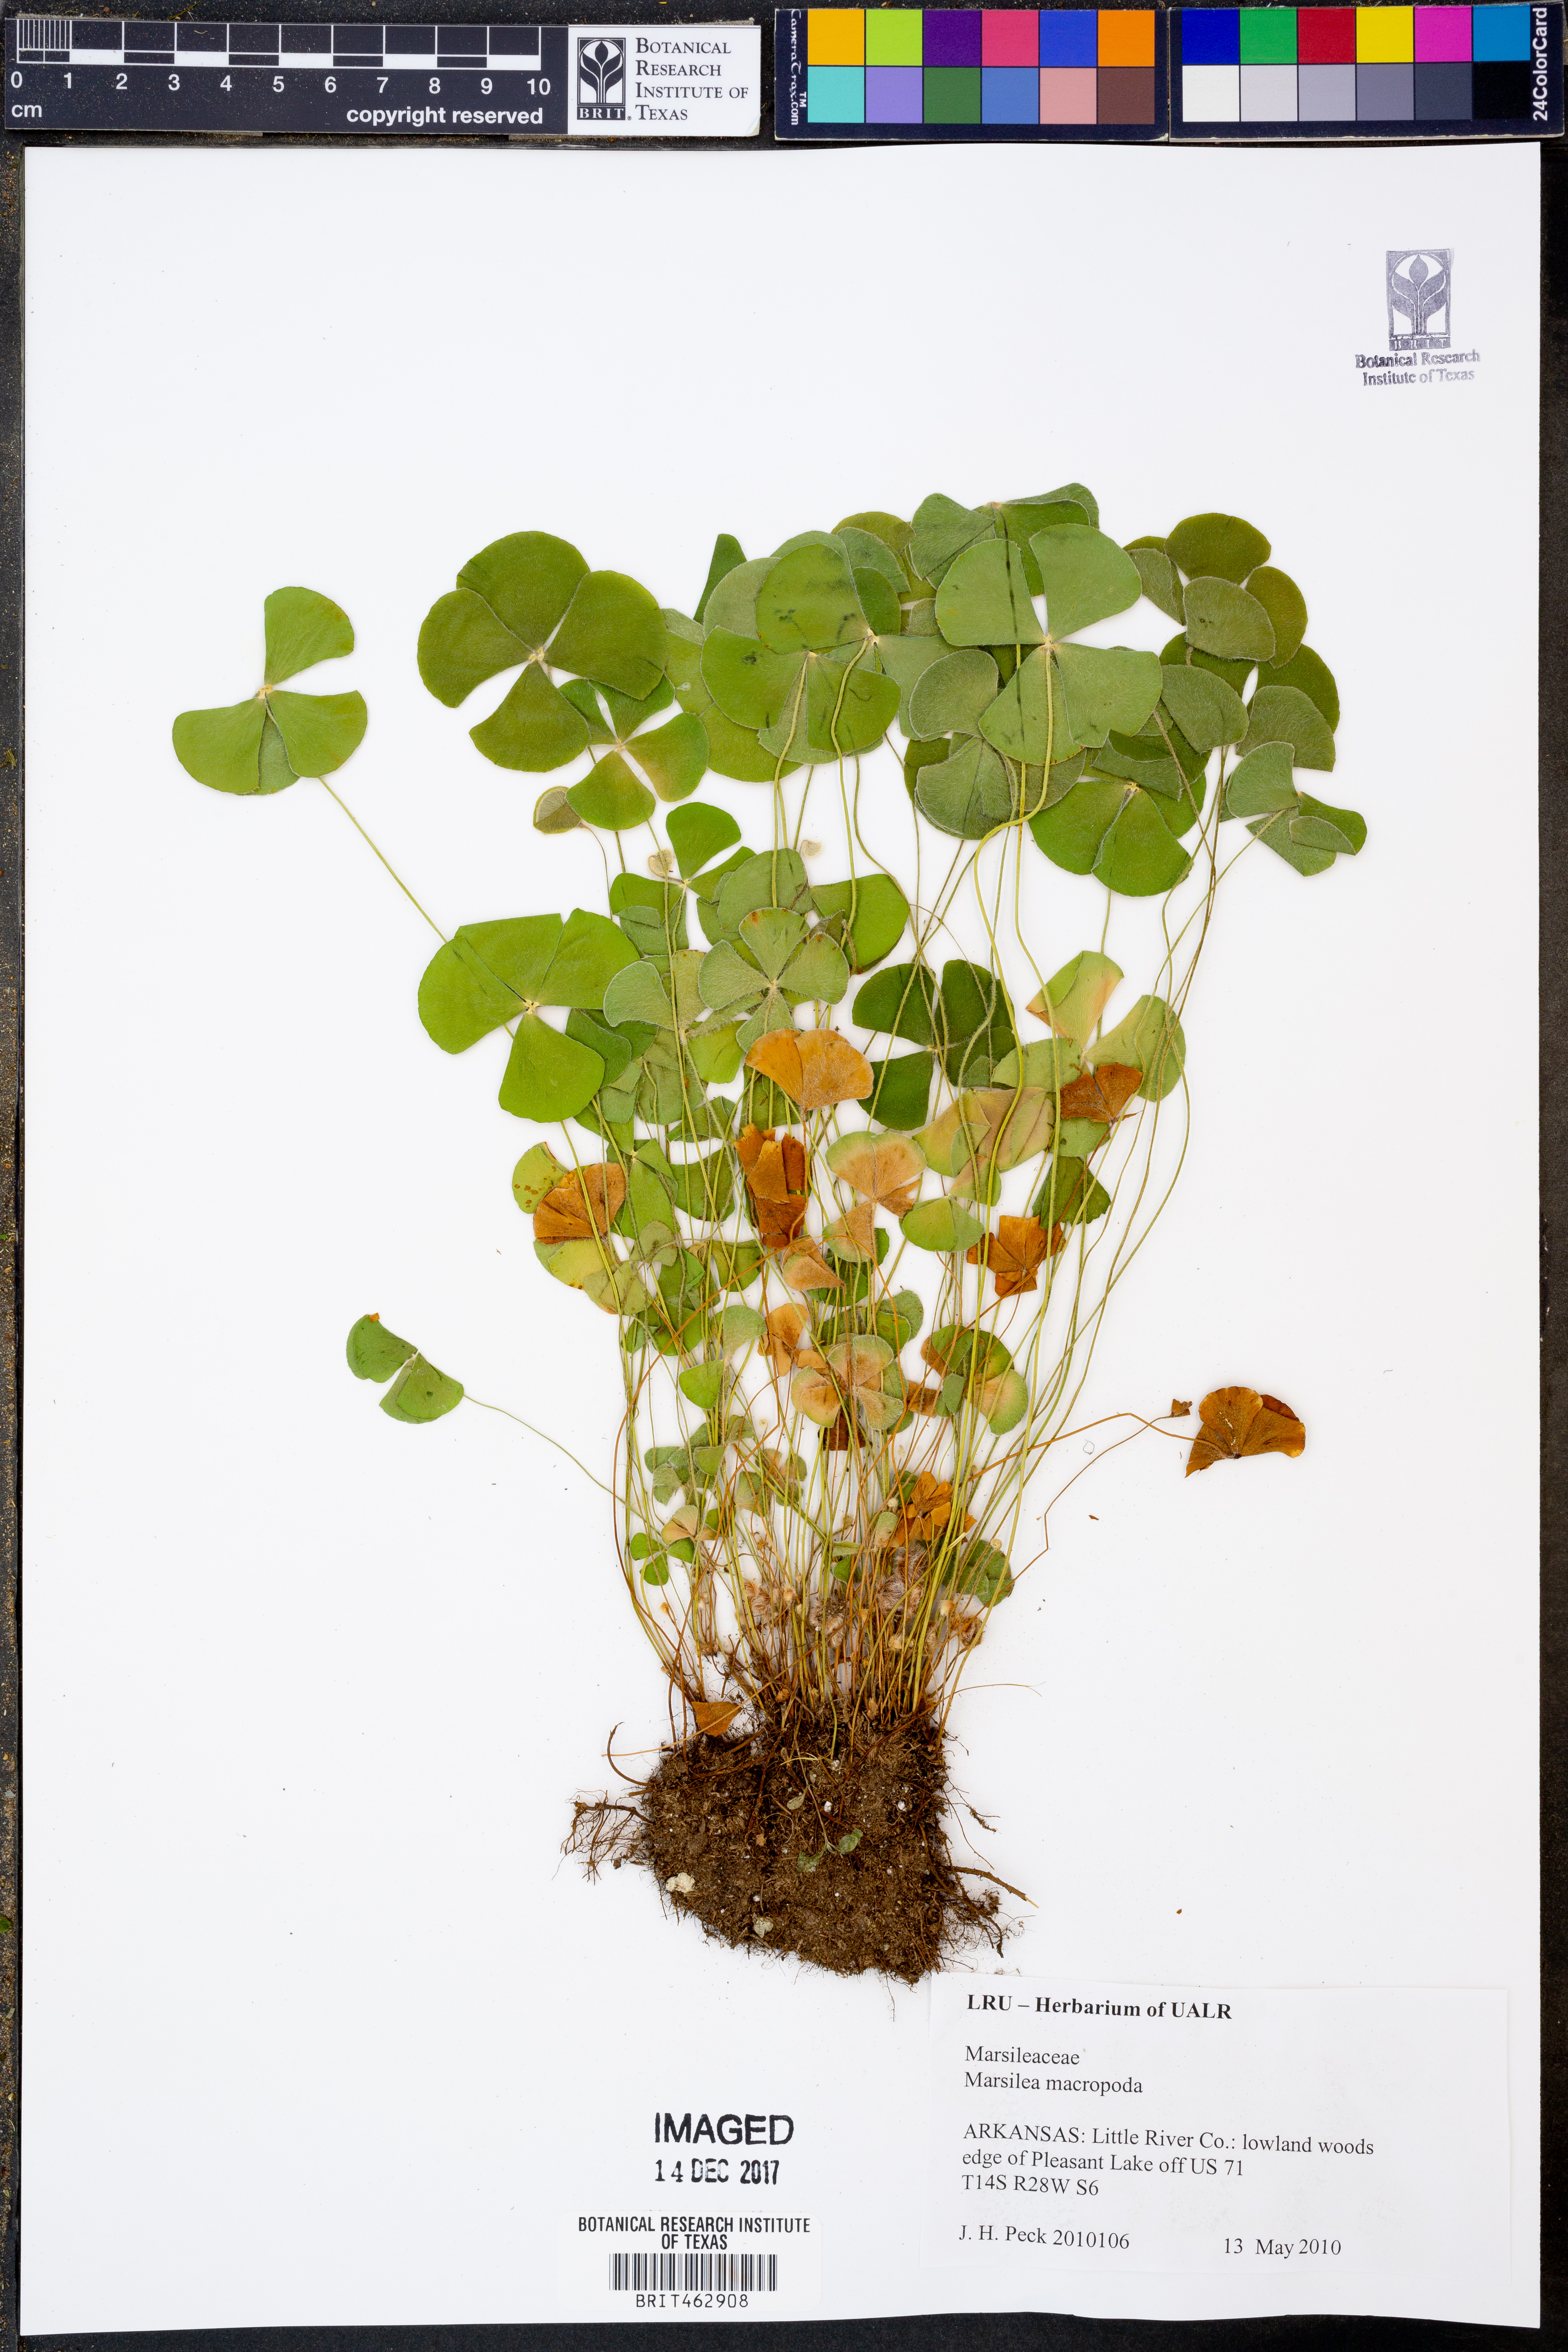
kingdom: Plantae
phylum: Tracheophyta
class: Polypodiopsida
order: Salviniales
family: Marsileaceae
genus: Marsilea
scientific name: Marsilea macropoda
